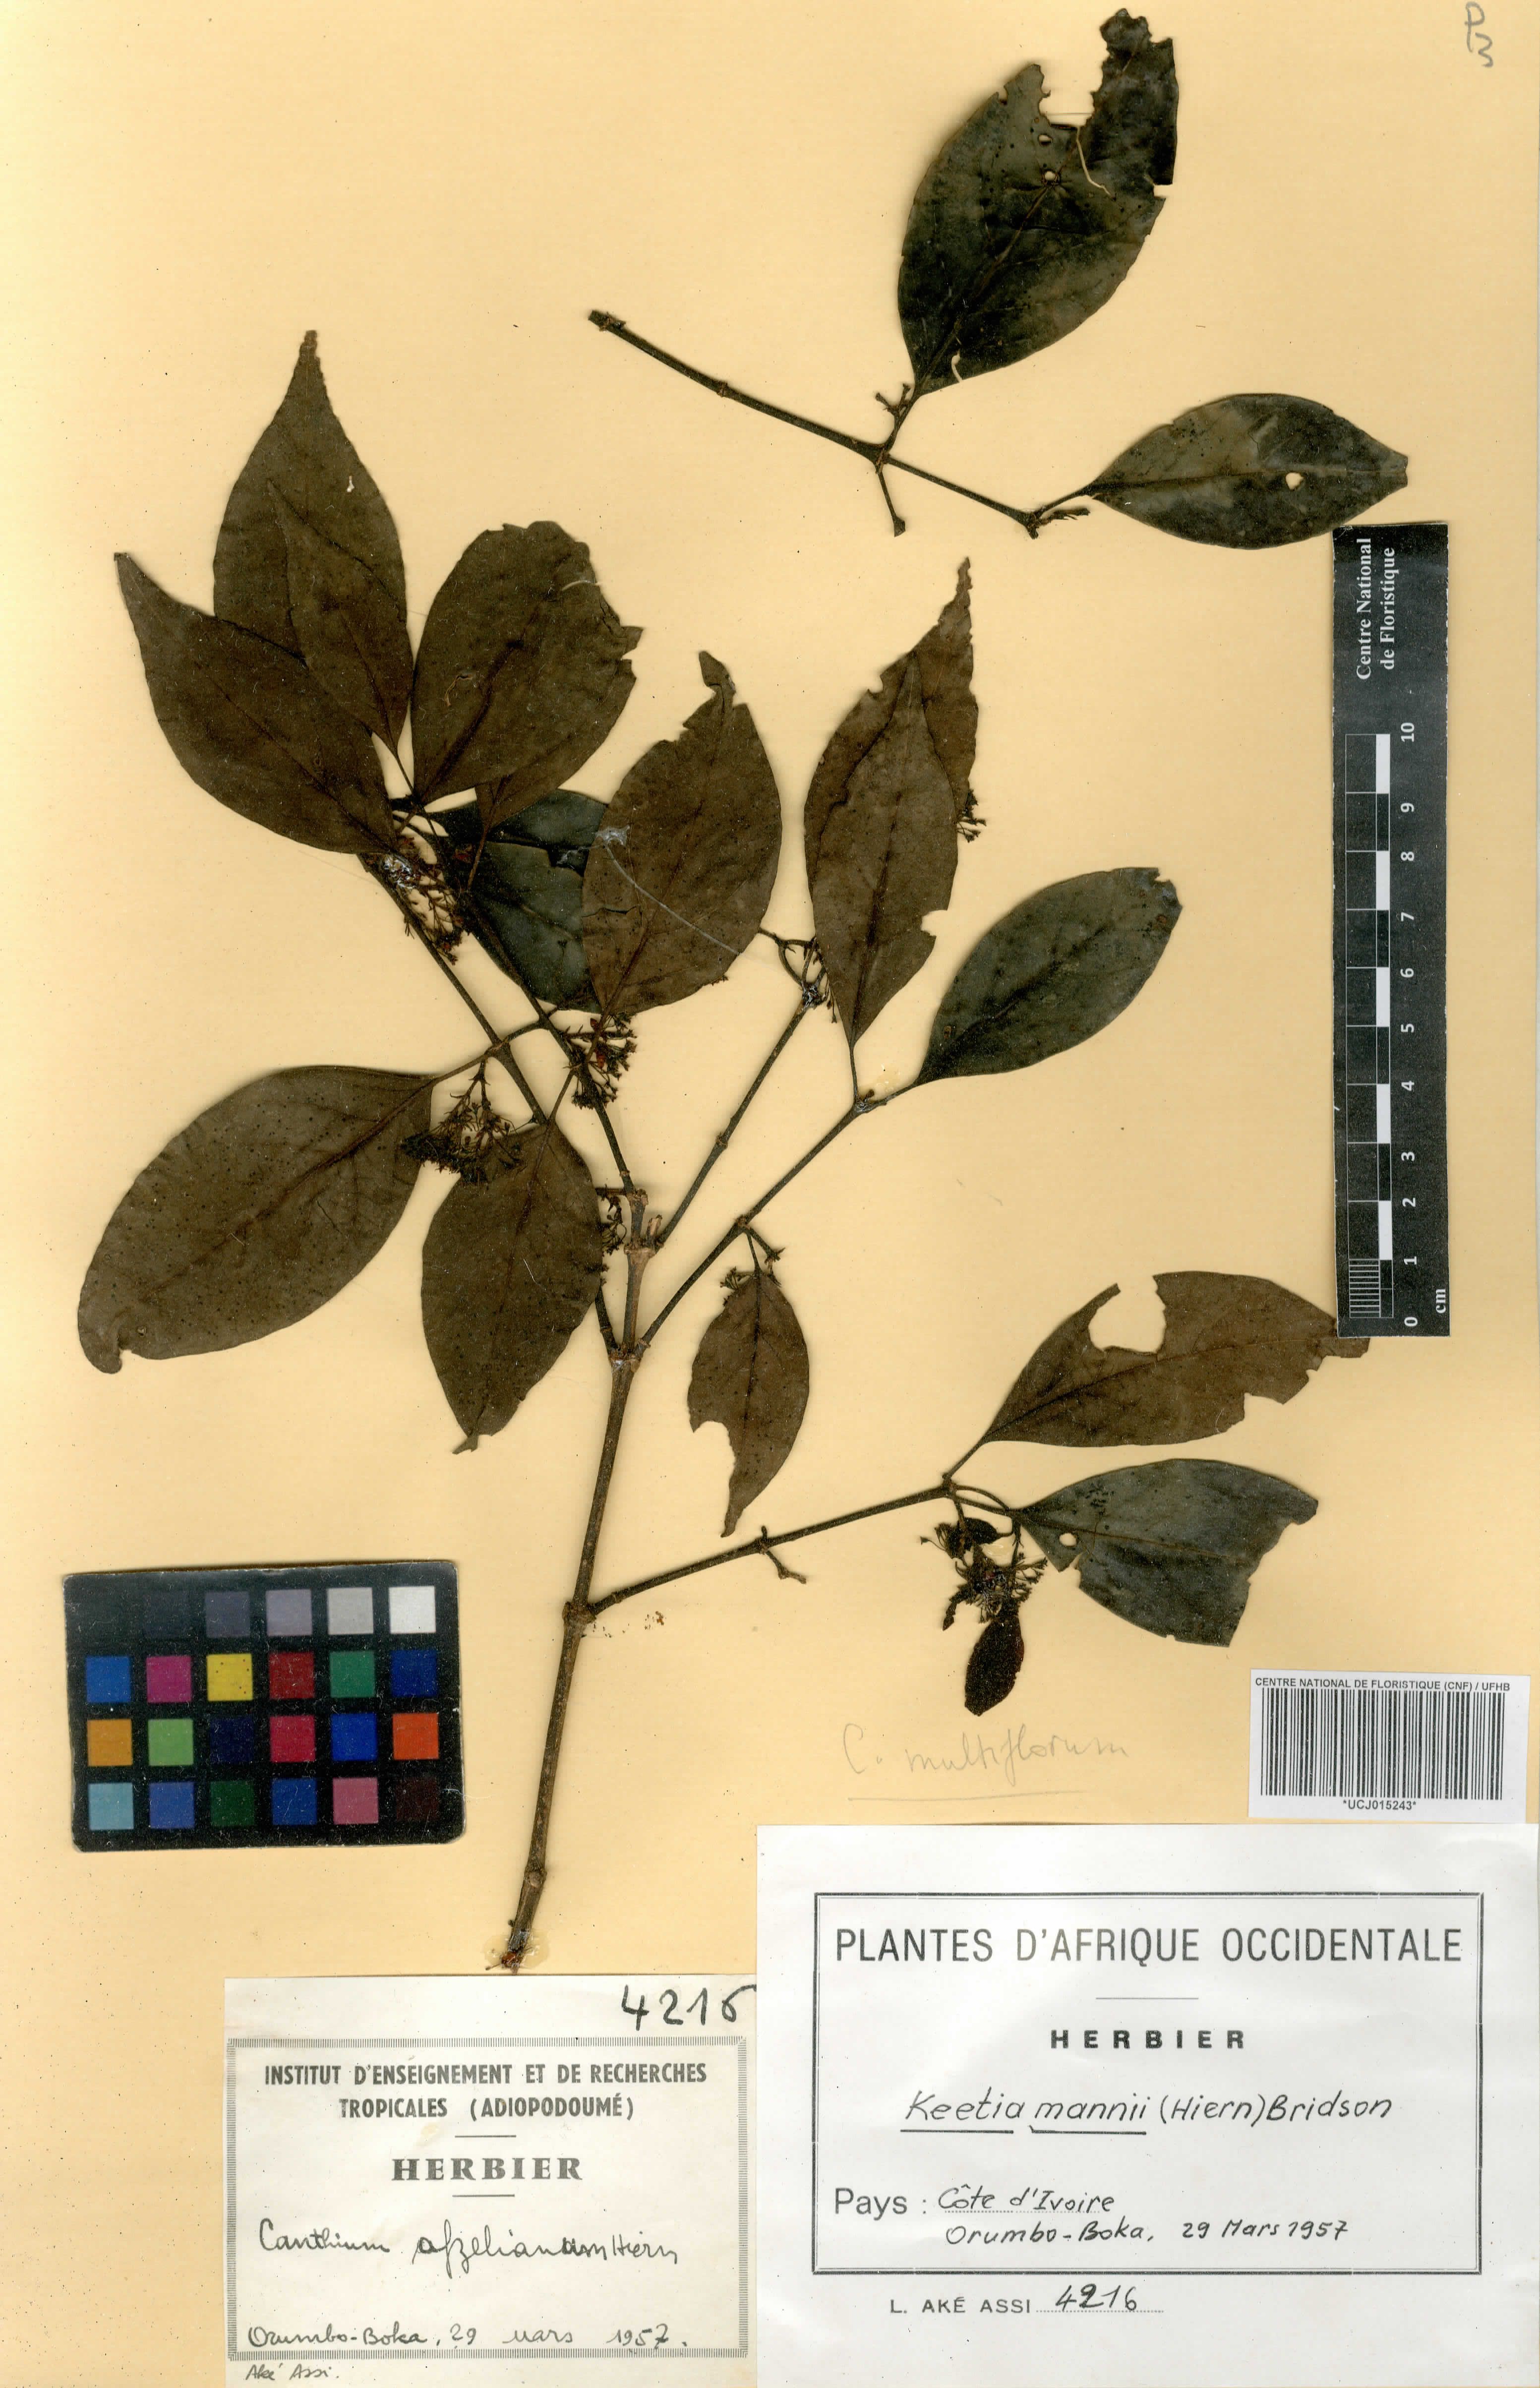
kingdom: Plantae
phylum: Tracheophyta
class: Magnoliopsida
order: Gentianales
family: Rubiaceae
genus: Keetia
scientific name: Keetia mannii
